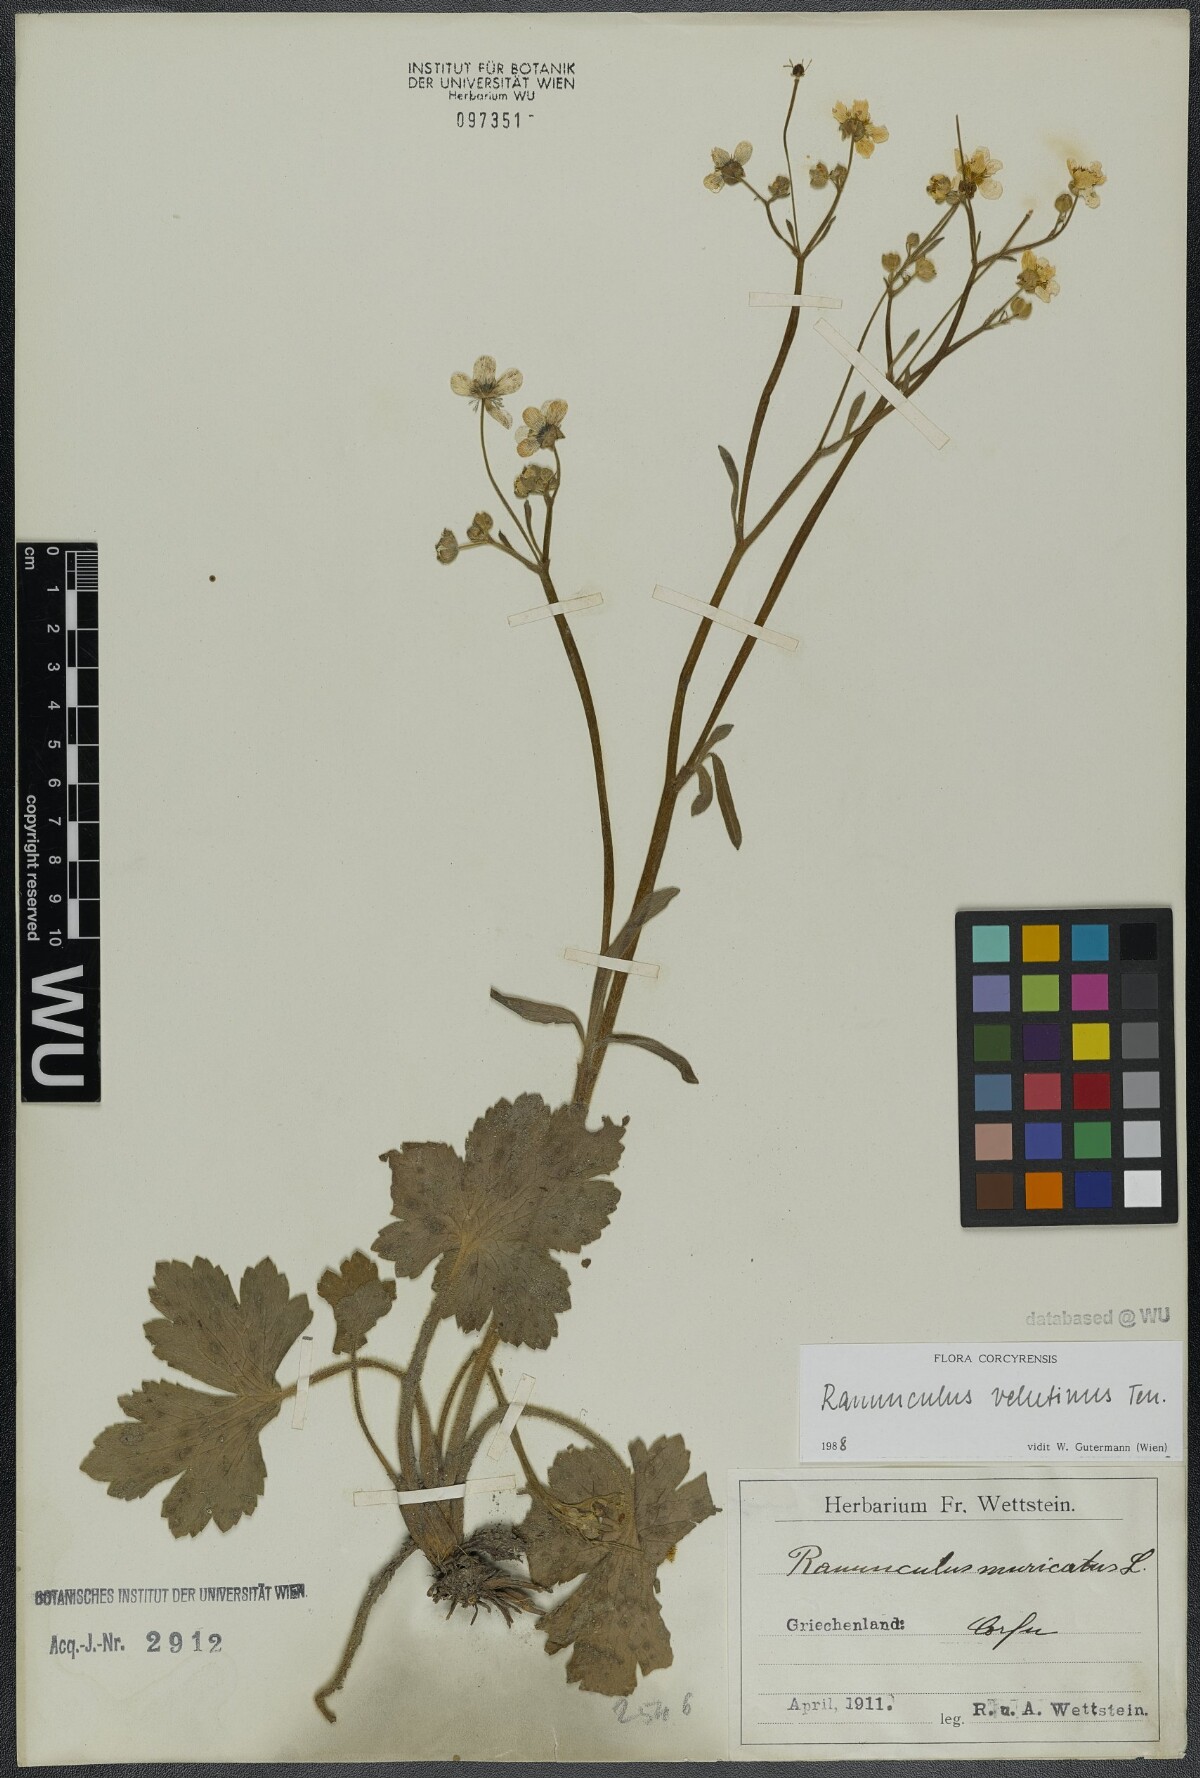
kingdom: Plantae
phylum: Tracheophyta
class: Magnoliopsida
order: Ranunculales
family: Ranunculaceae
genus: Ranunculus
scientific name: Ranunculus velutinus
